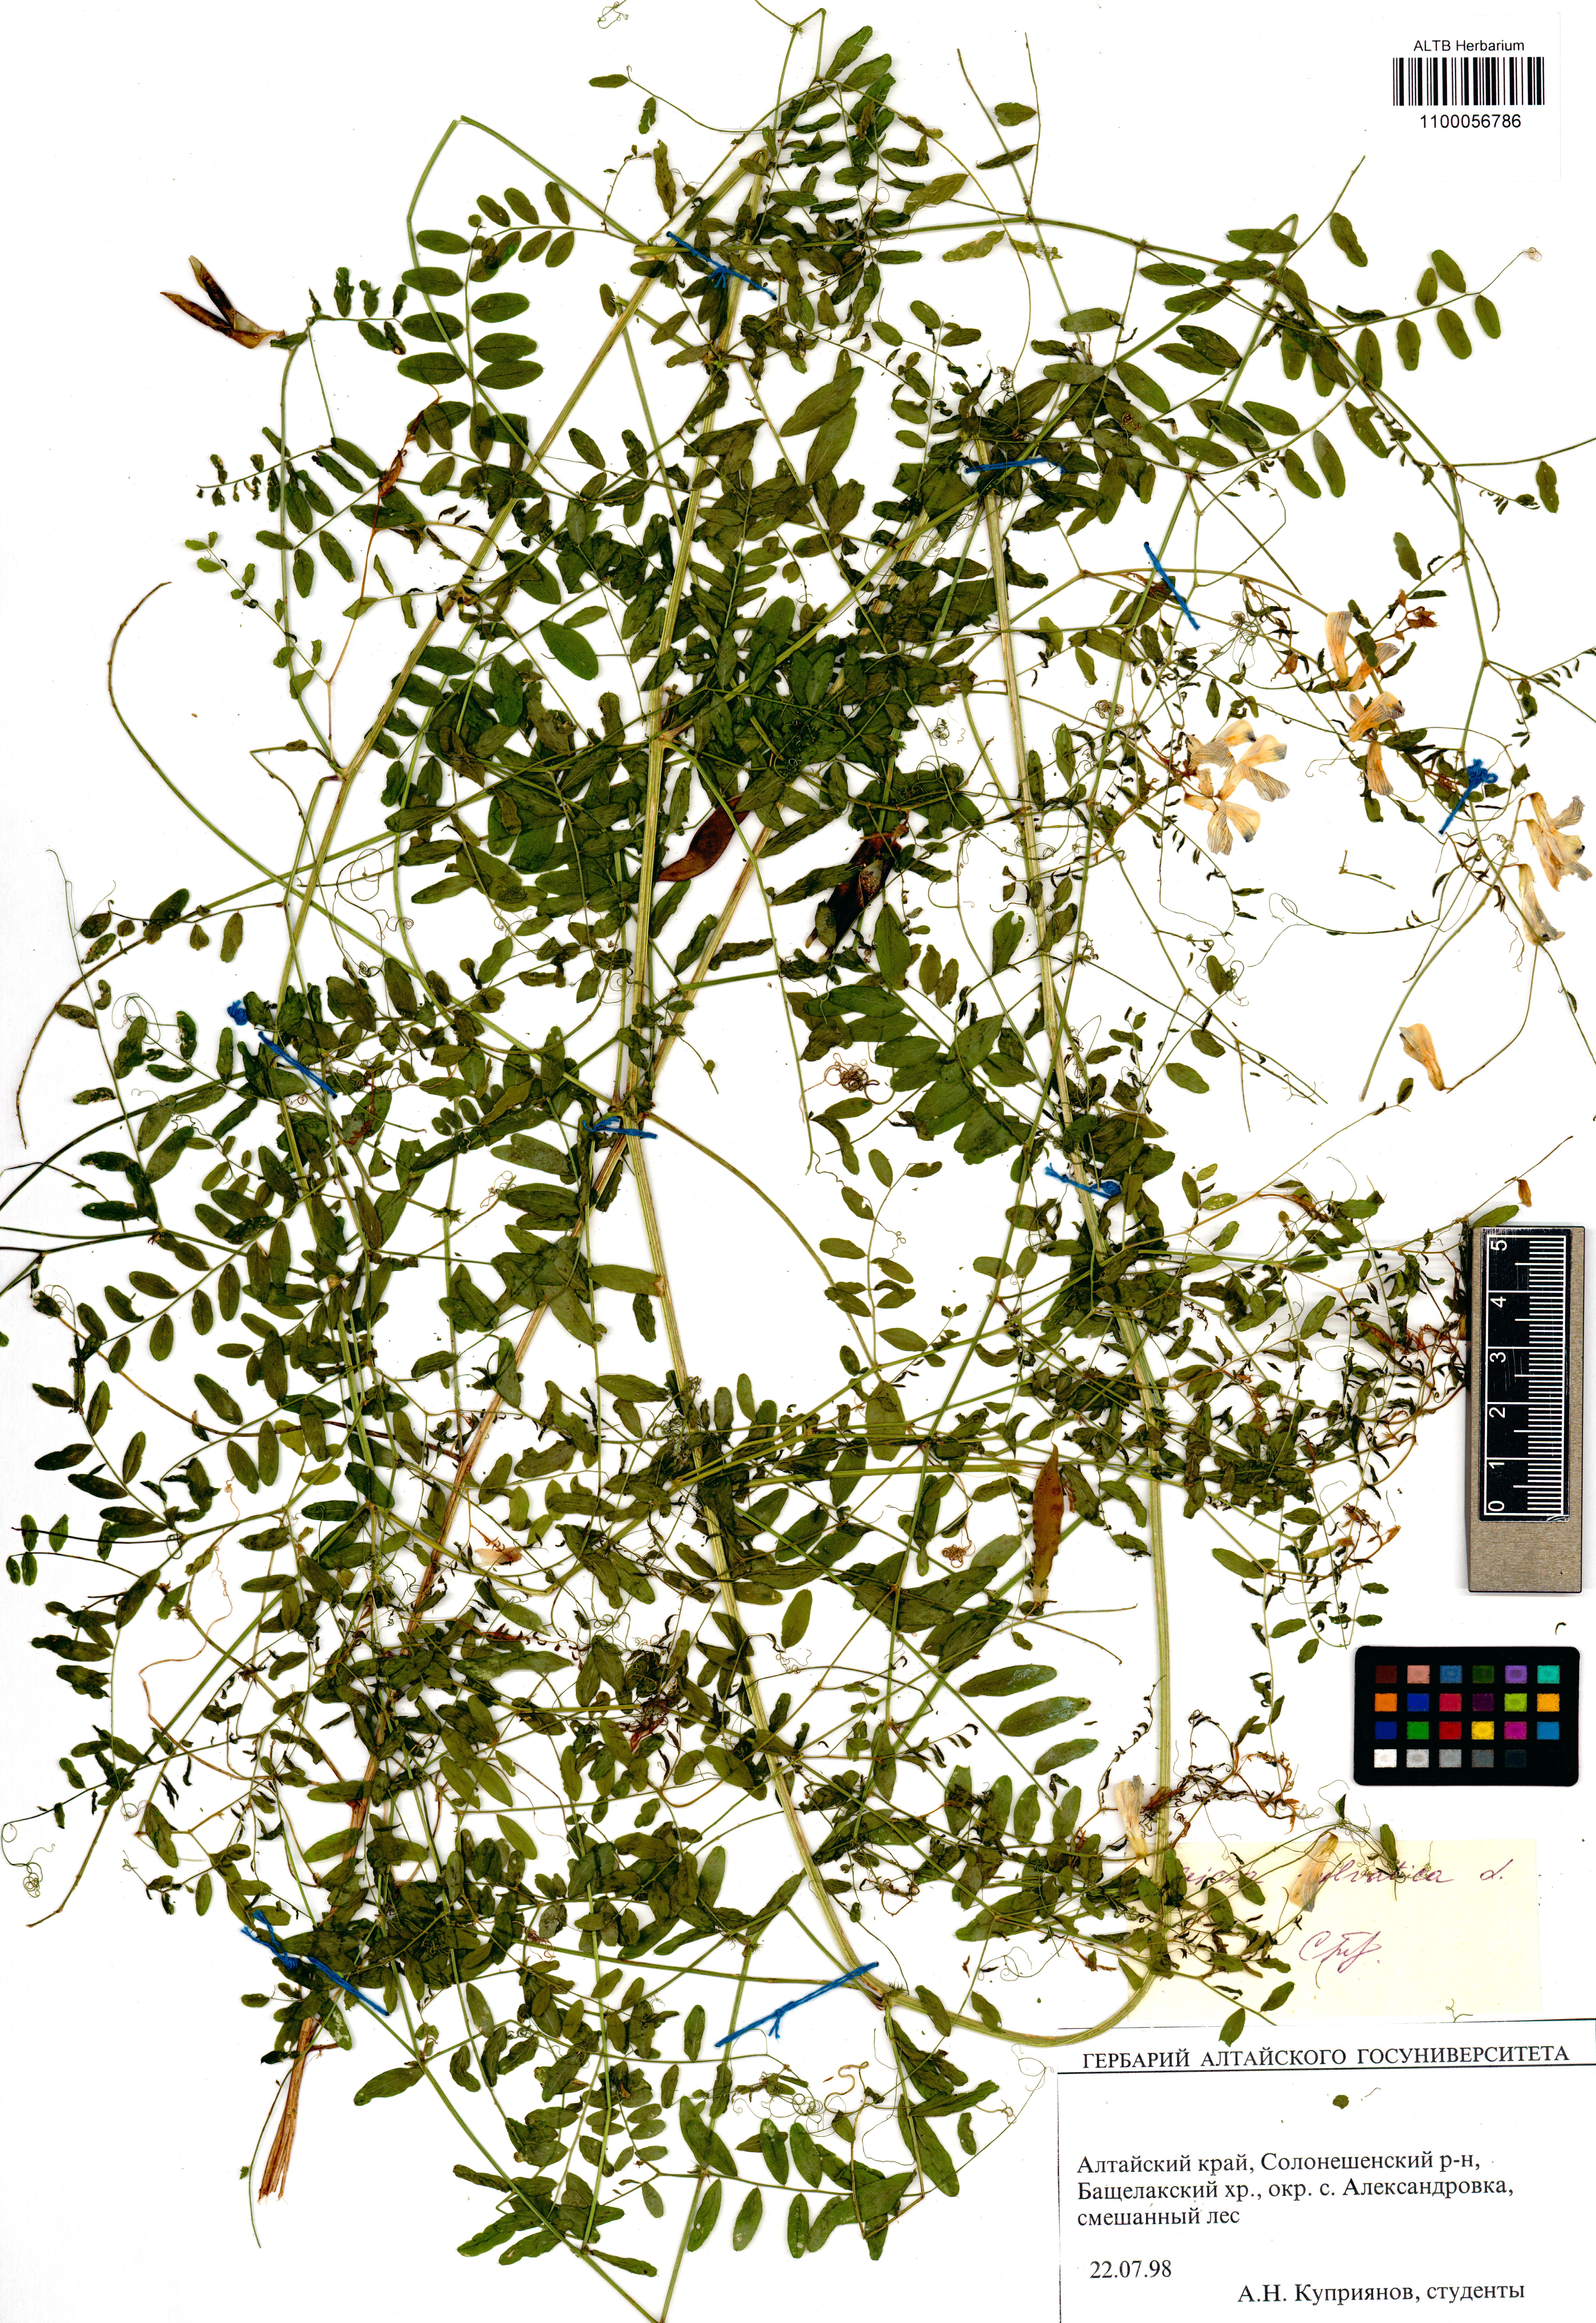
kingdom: Plantae
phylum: Tracheophyta
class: Magnoliopsida
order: Fabales
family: Fabaceae
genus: Vicia
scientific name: Vicia sylvatica
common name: Wood vetch
